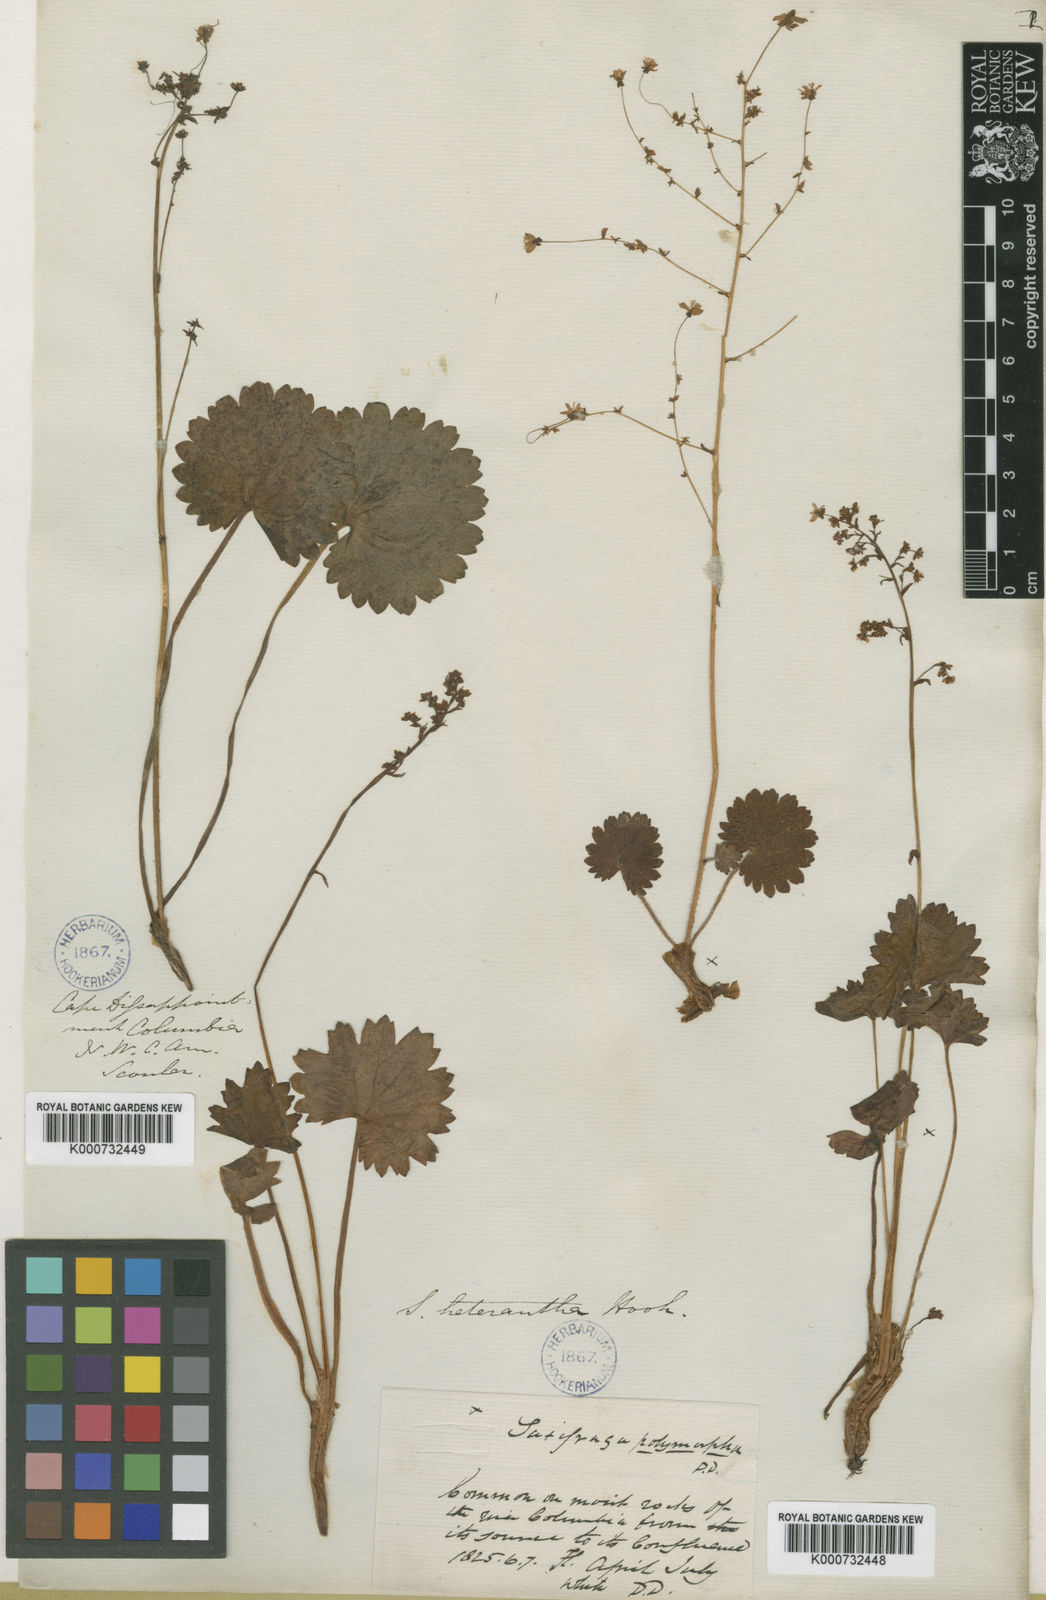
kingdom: Plantae
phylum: Tracheophyta
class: Magnoliopsida
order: Saxifragales
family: Saxifragaceae
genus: Micranthes
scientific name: Micranthes mertensiana
